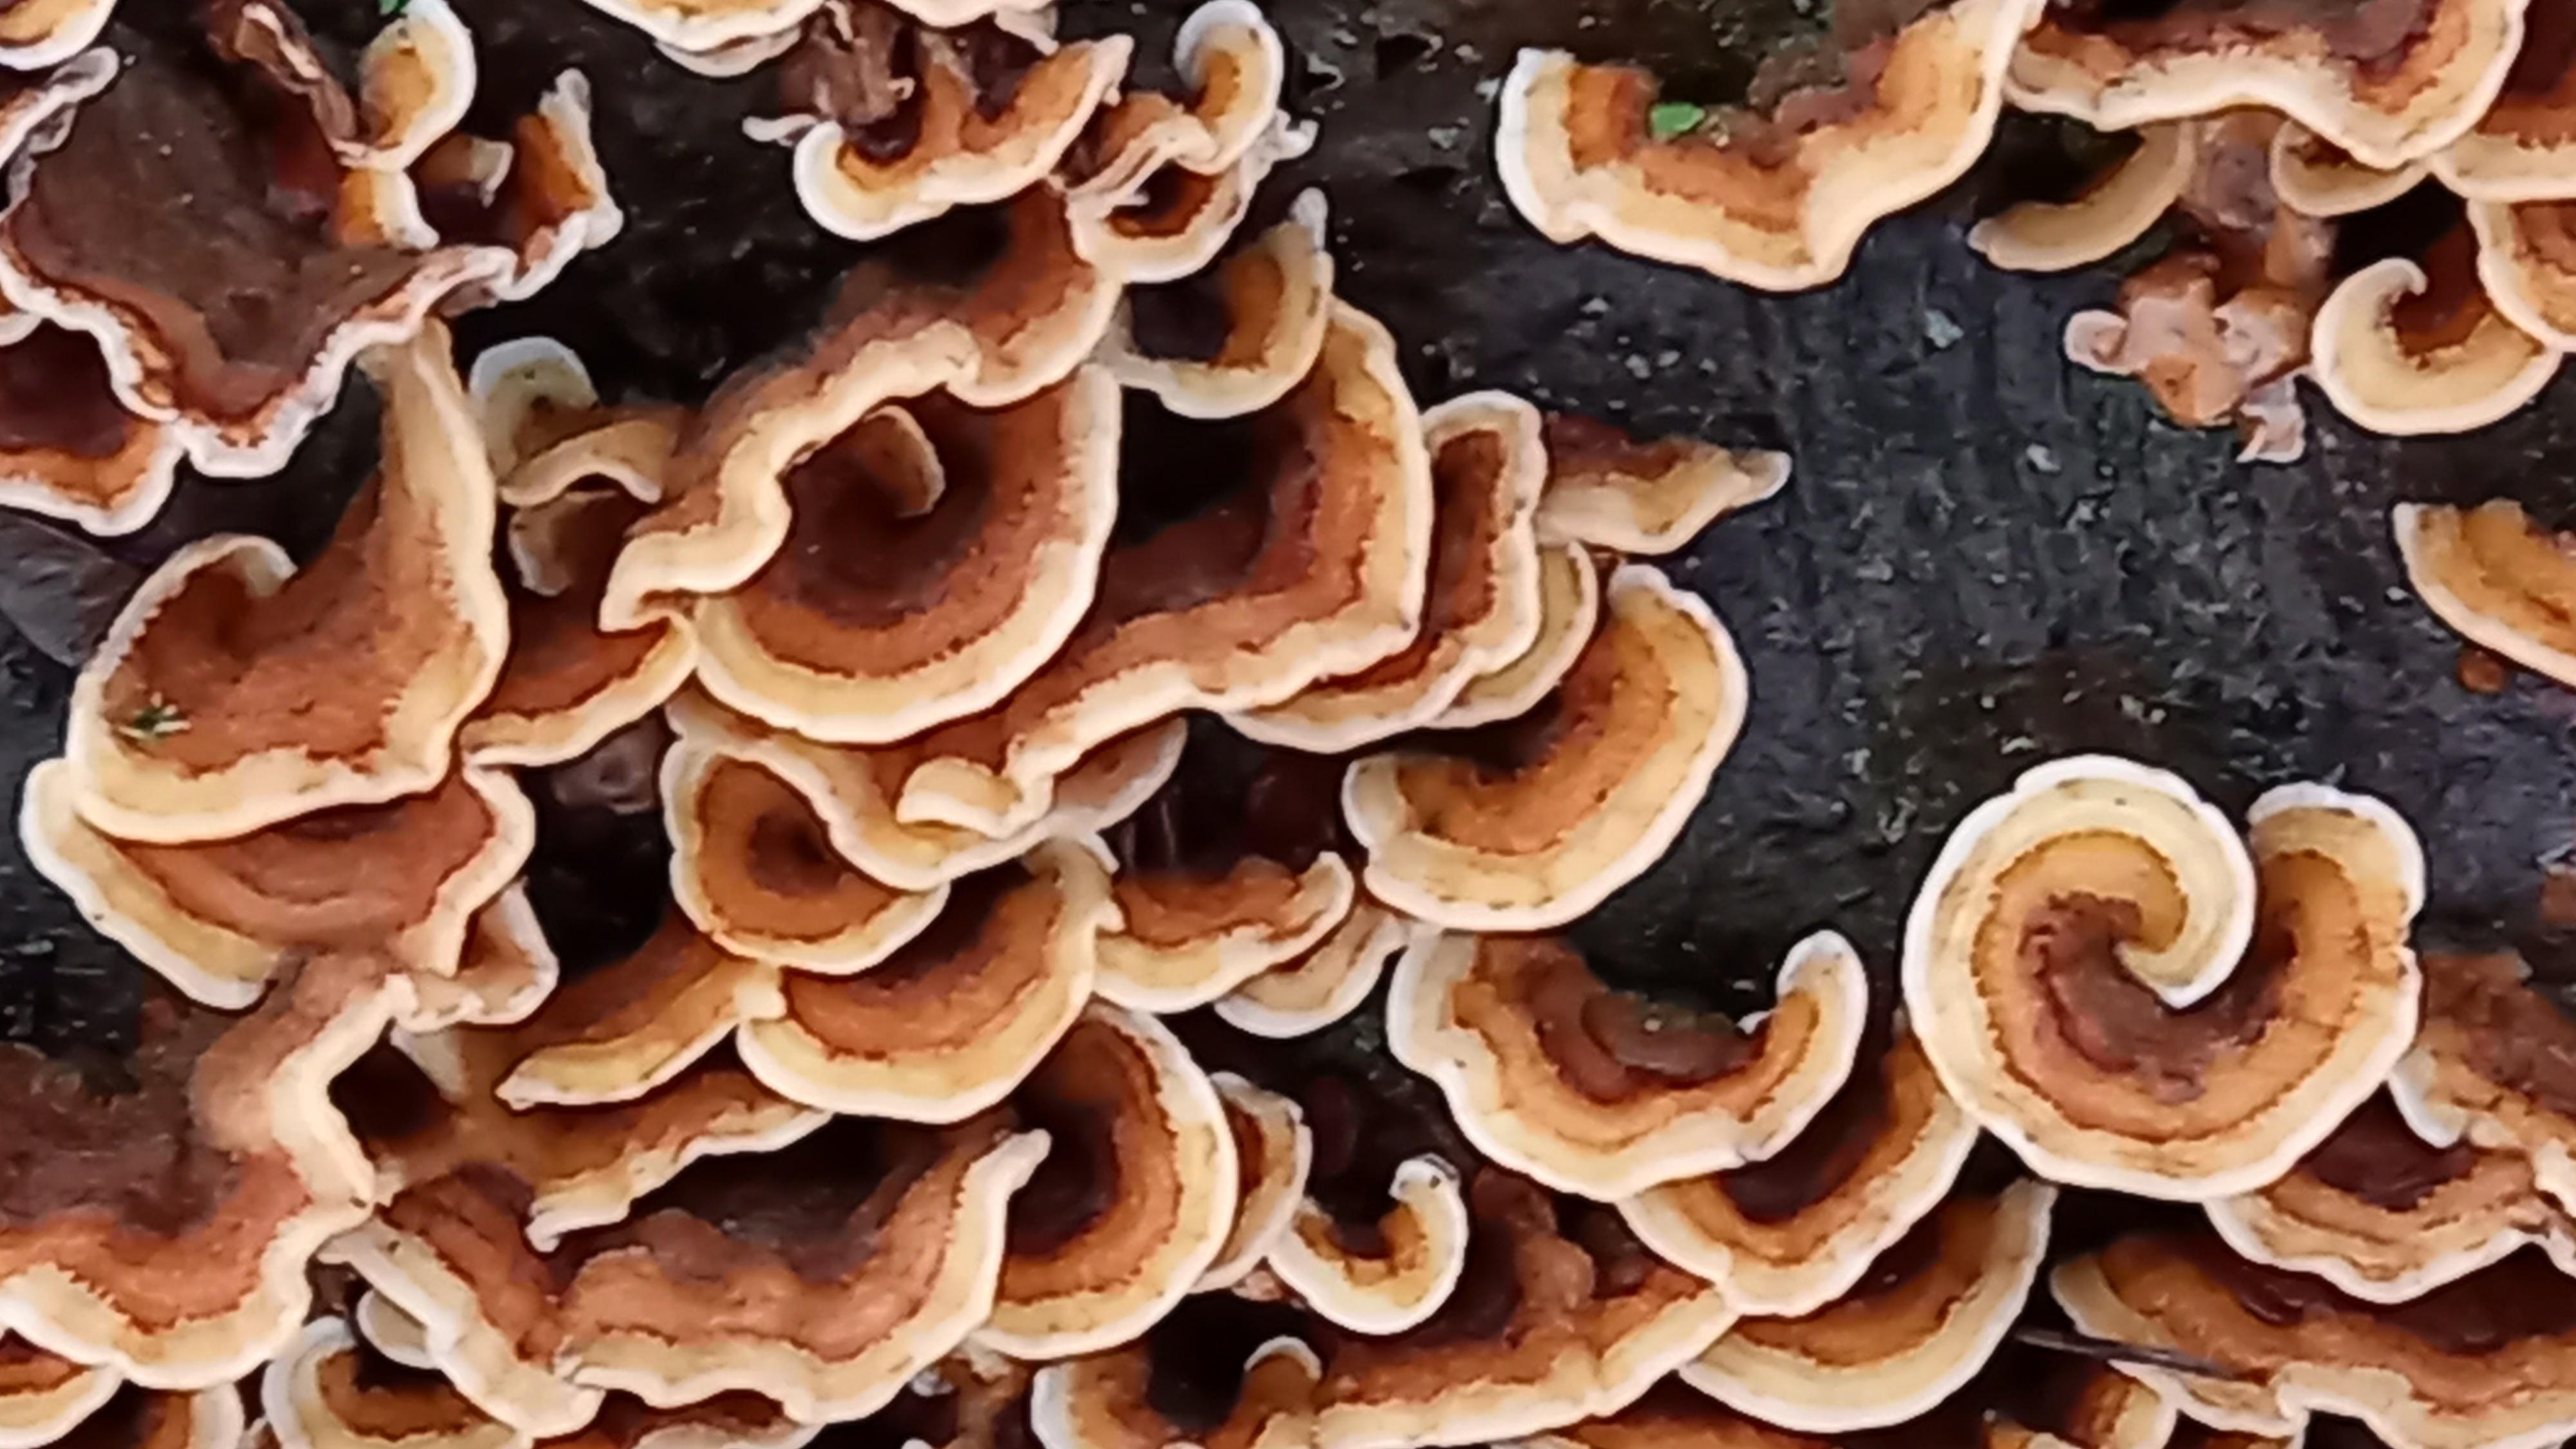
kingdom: Fungi
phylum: Basidiomycota
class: Agaricomycetes
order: Russulales
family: Stereaceae
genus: Stereum
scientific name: Stereum hirsutum
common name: håret lædersvamp
